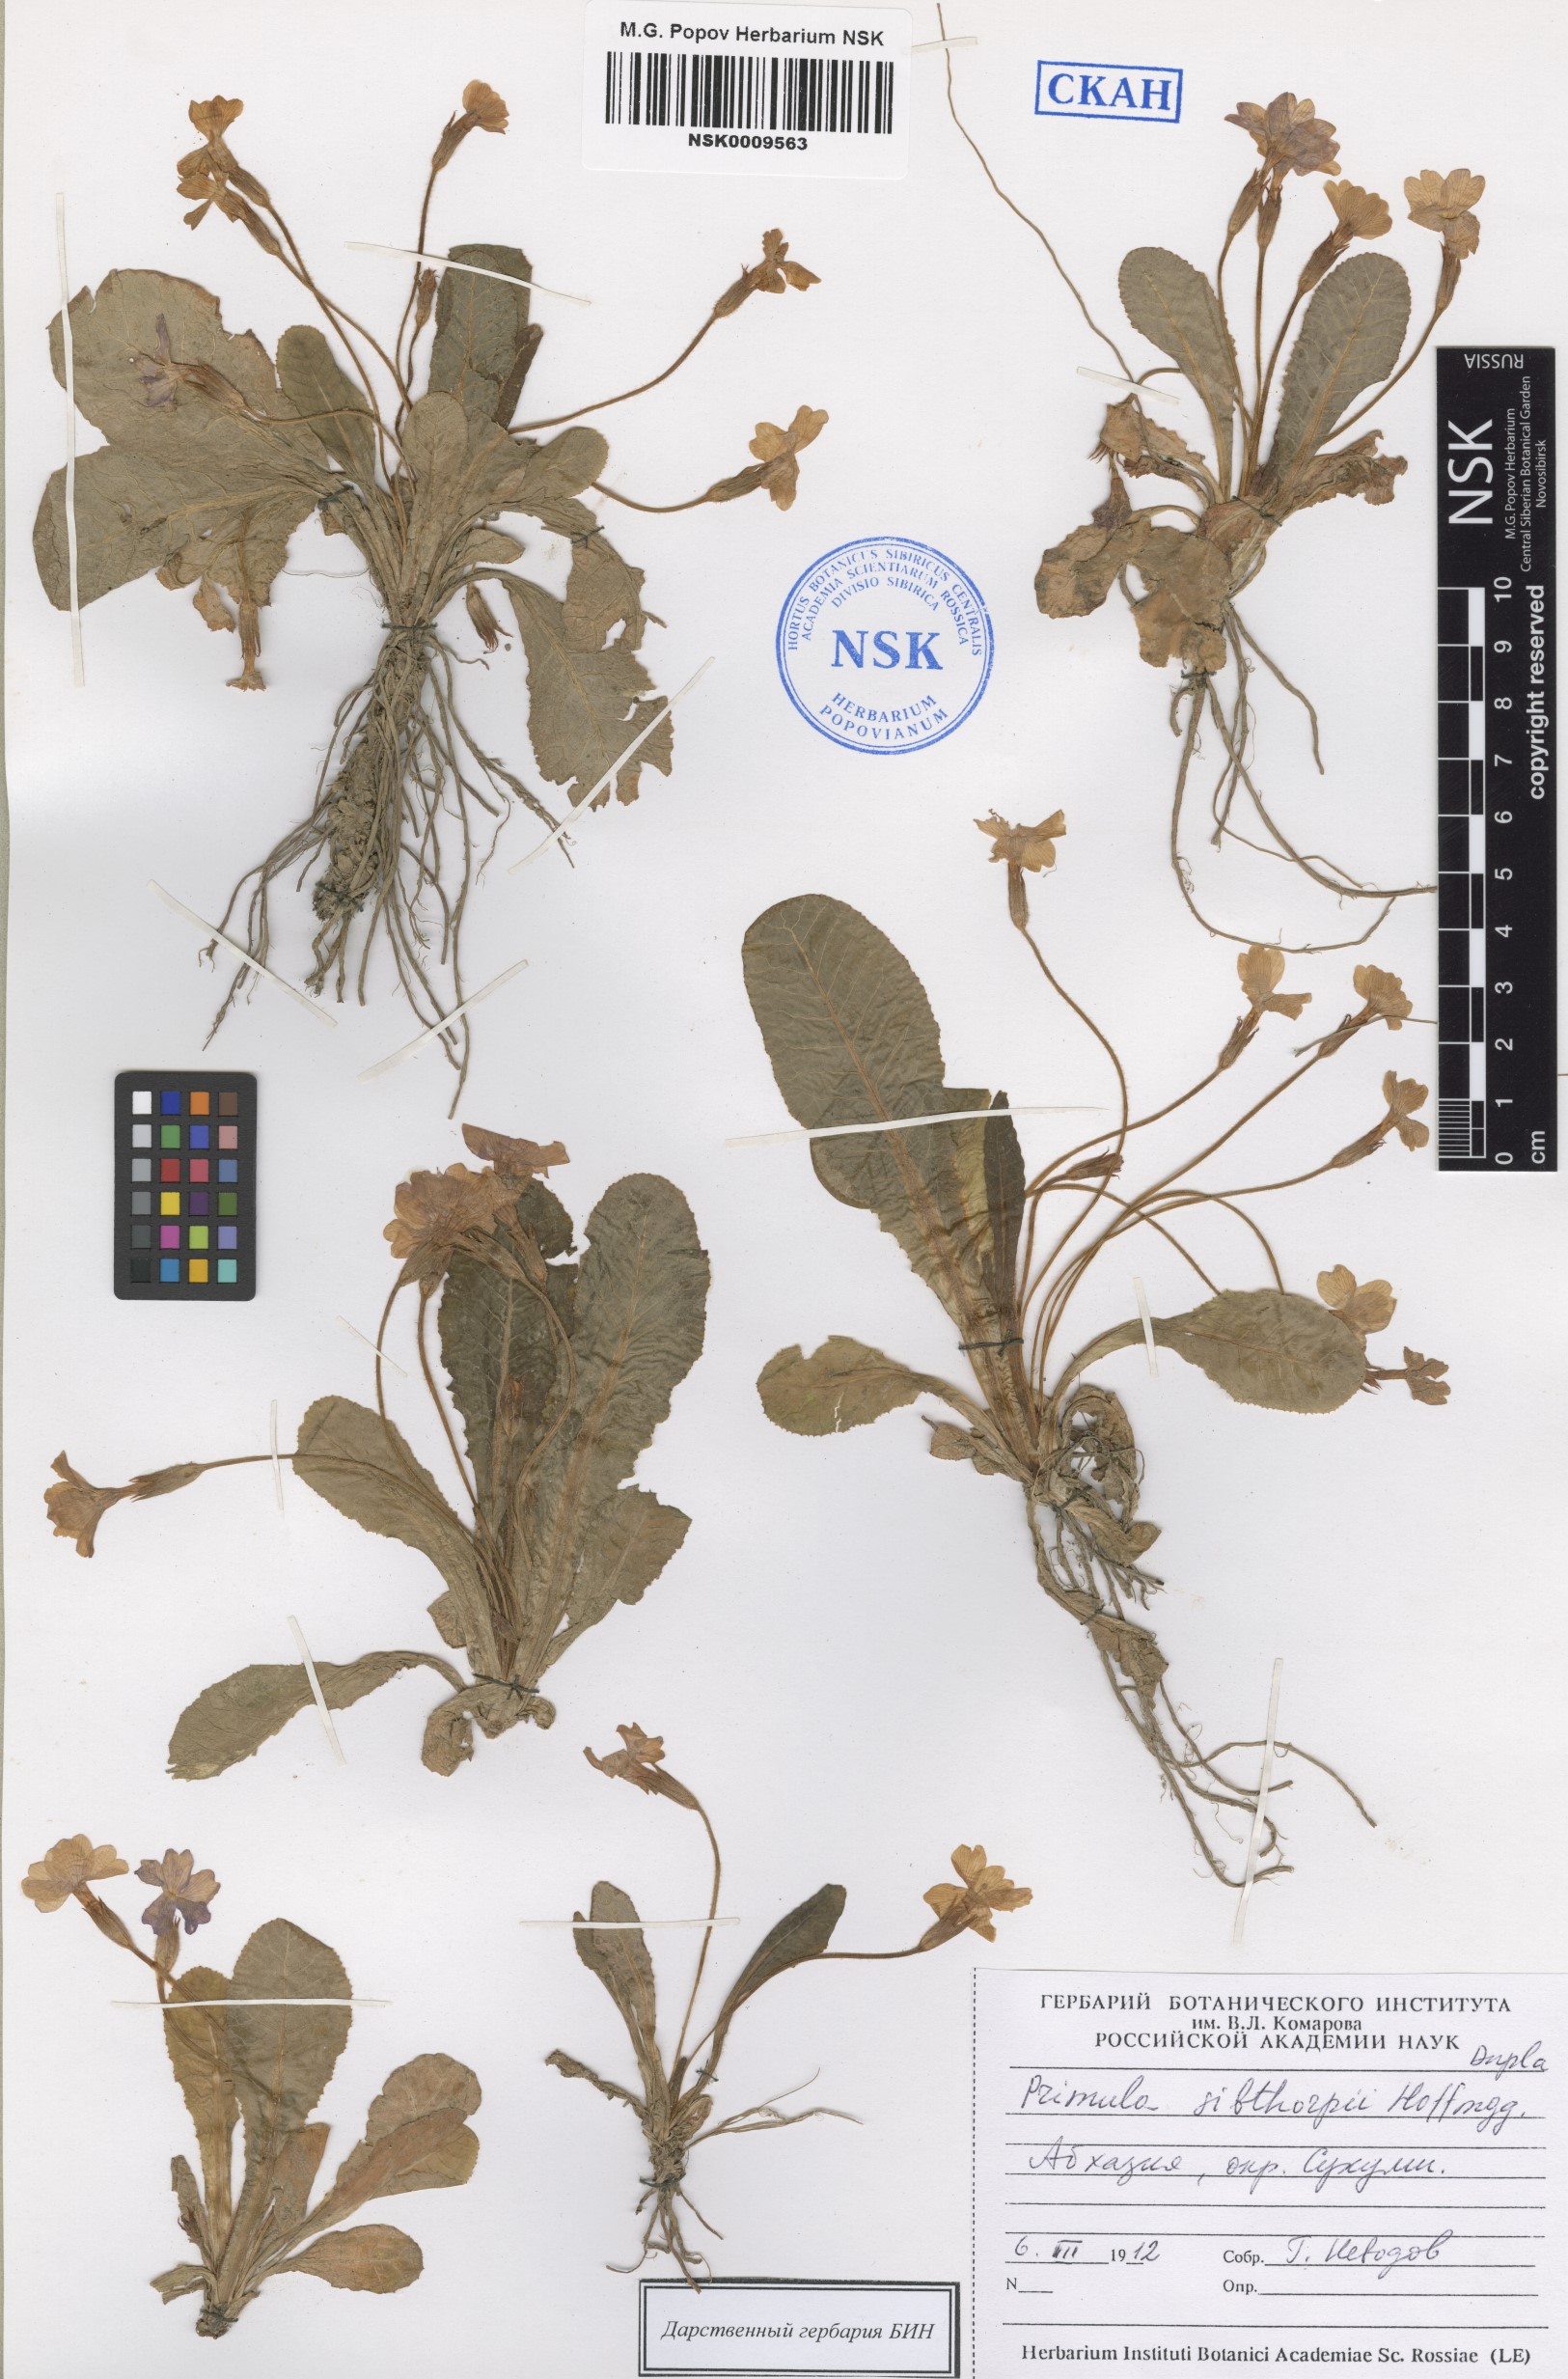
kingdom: Plantae
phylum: Tracheophyta
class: Magnoliopsida
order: Ericales
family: Primulaceae
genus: Primula
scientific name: Primula vulgaris
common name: Primrose
